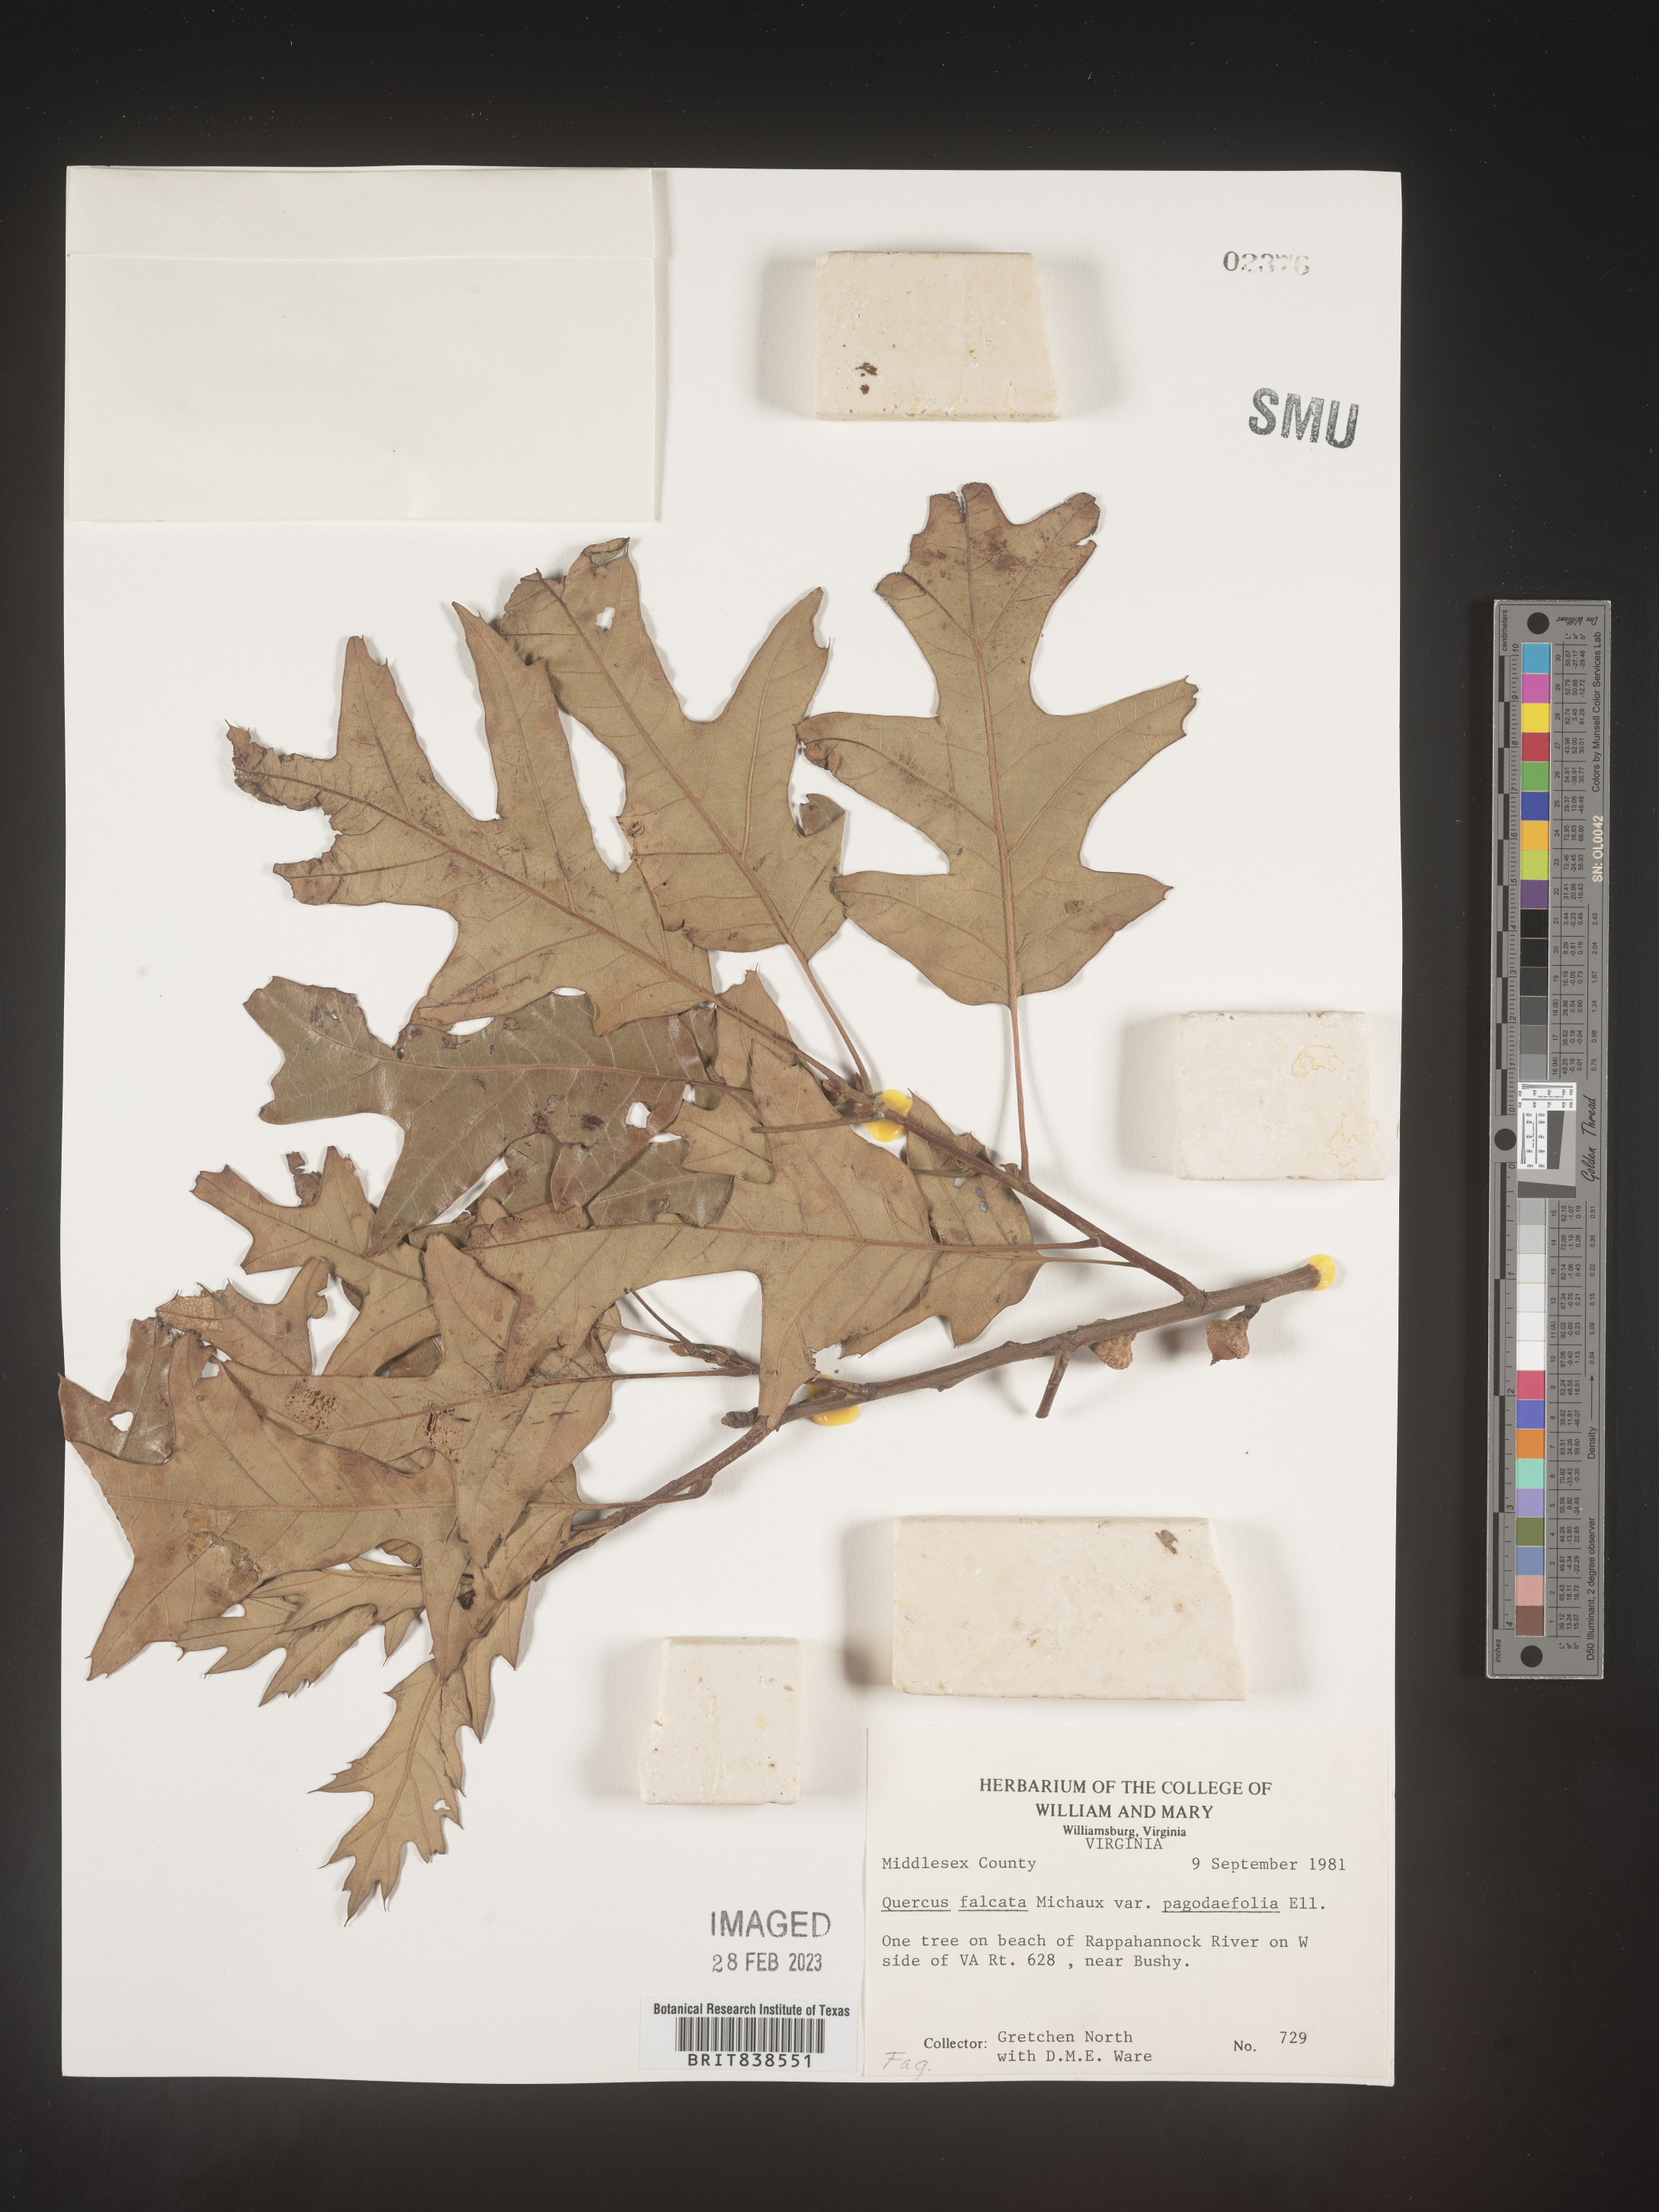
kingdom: Plantae
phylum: Tracheophyta
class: Magnoliopsida
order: Fagales
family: Fagaceae
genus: Quercus
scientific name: Quercus falcata
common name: Southern red oak
